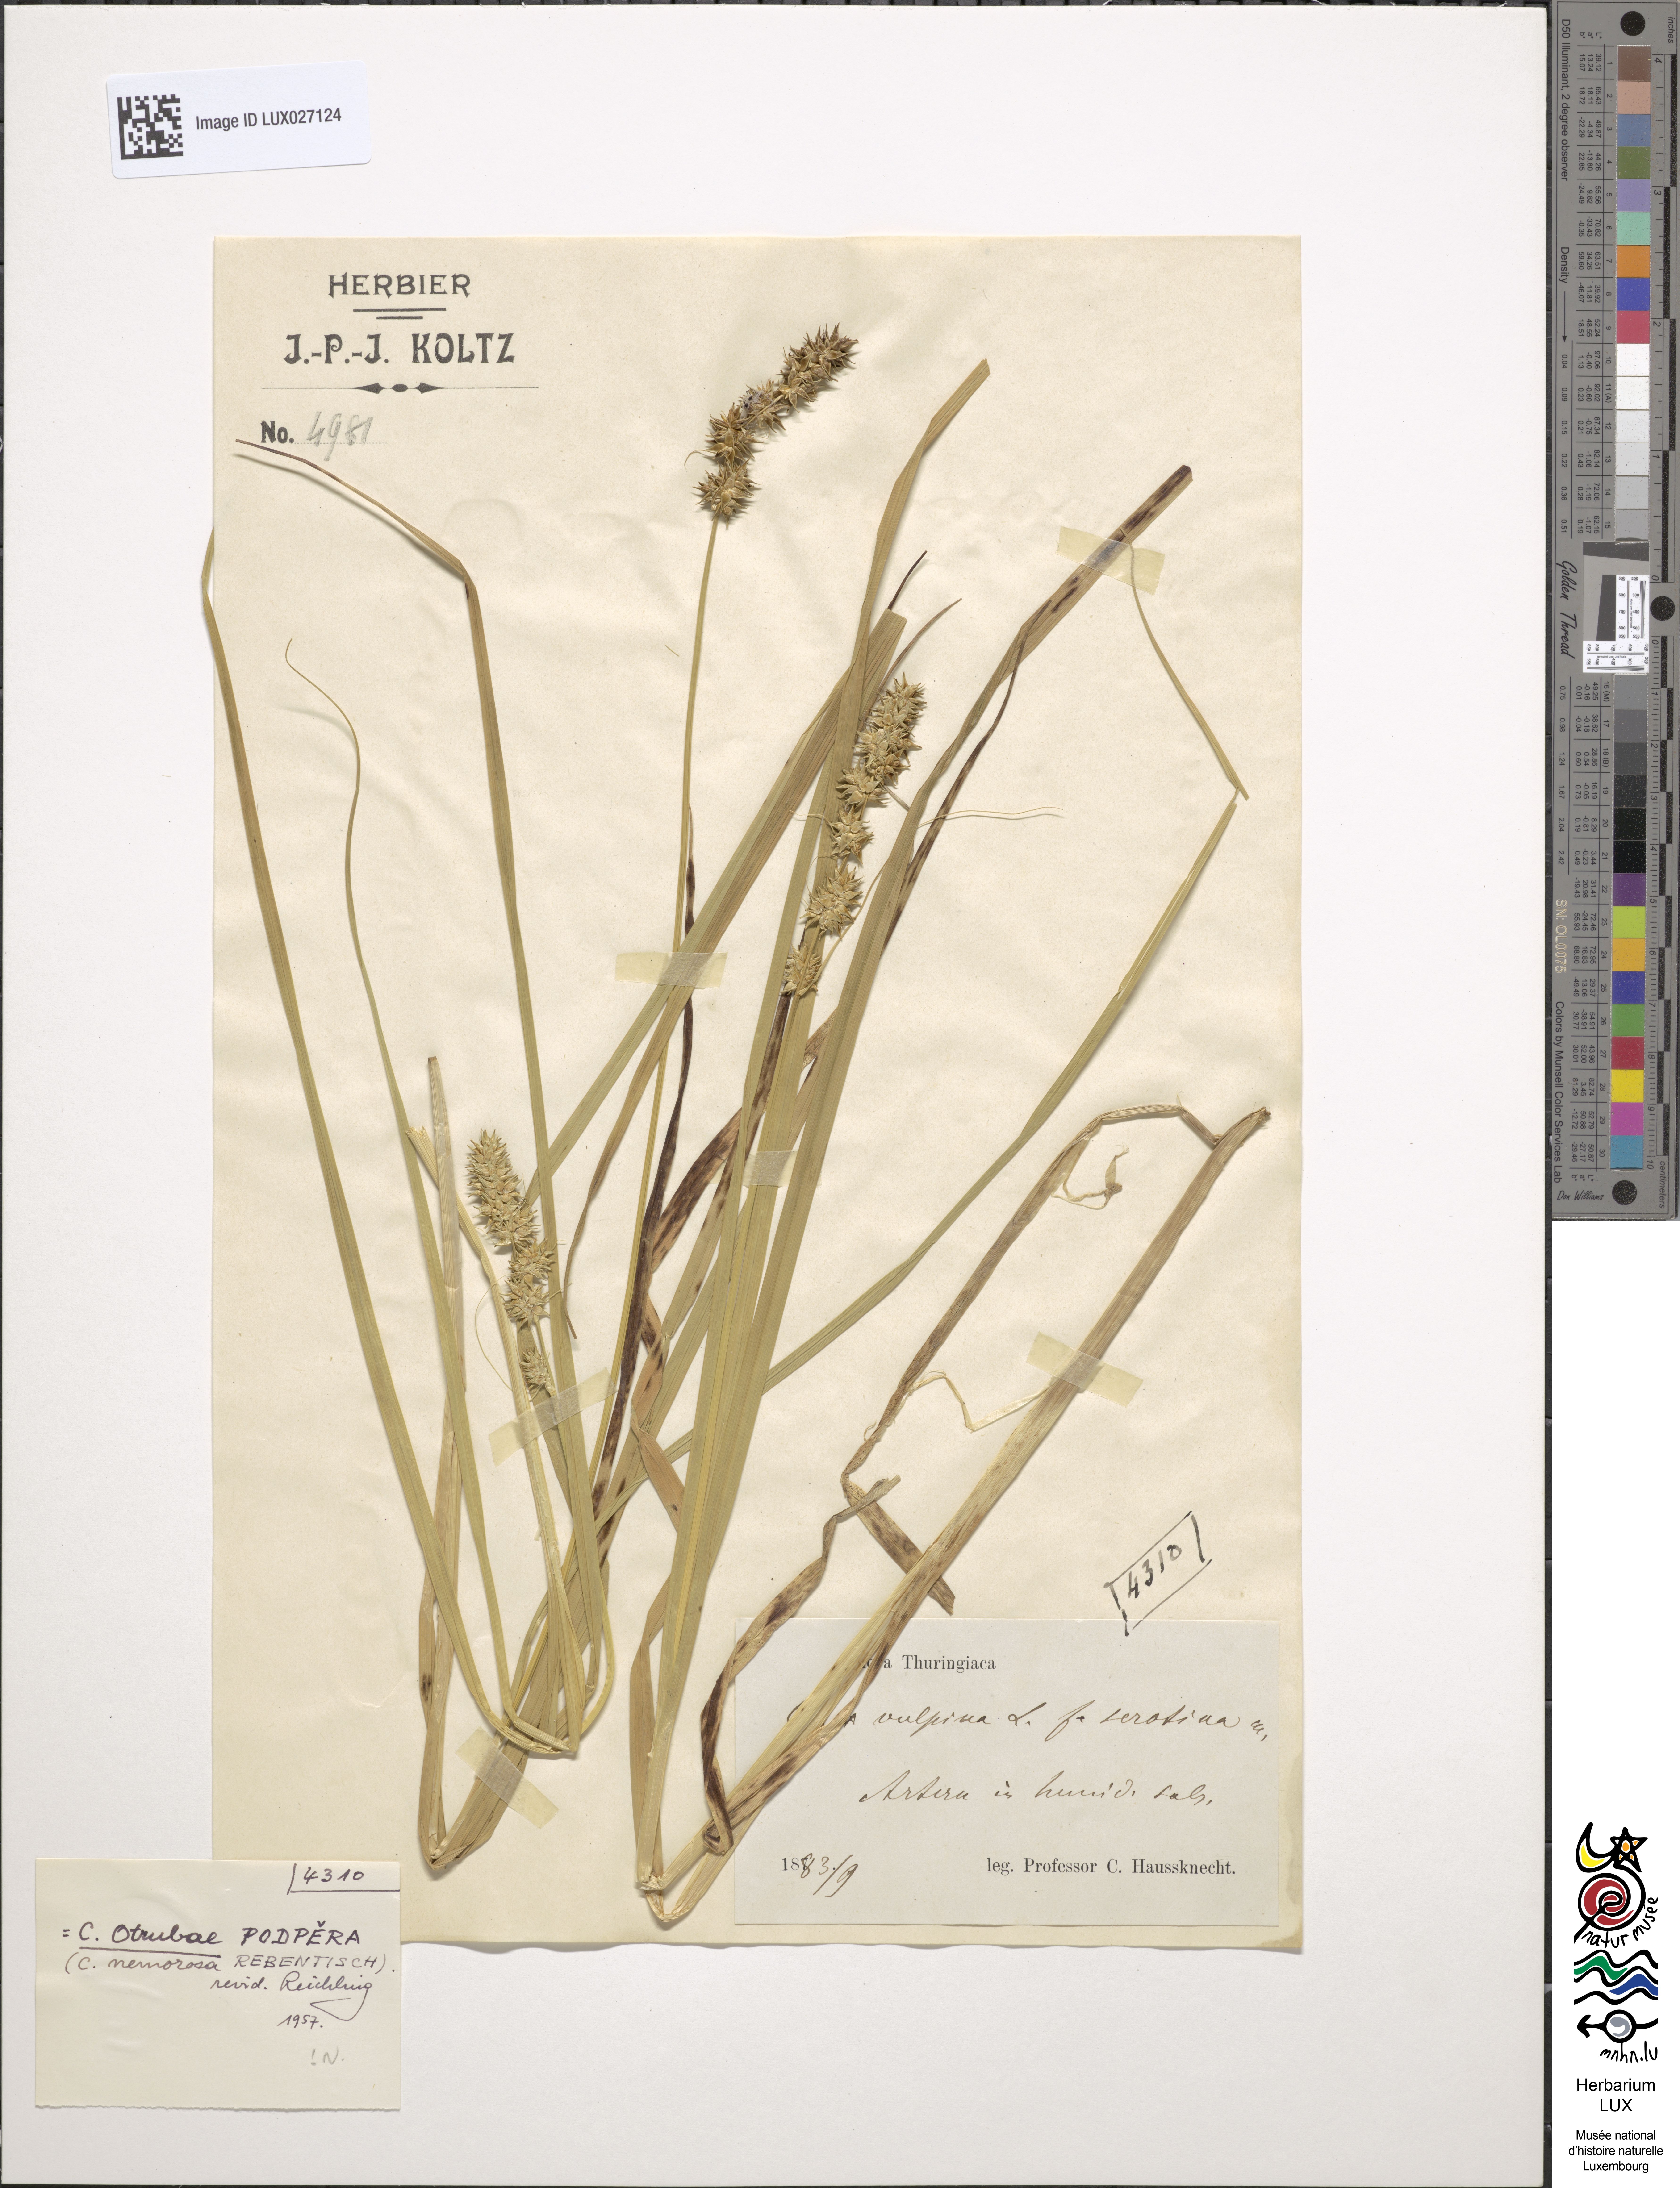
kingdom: Plantae
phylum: Tracheophyta
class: Liliopsida
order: Poales
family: Cyperaceae
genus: Carex
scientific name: Carex otrubae
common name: False fox-sedge
